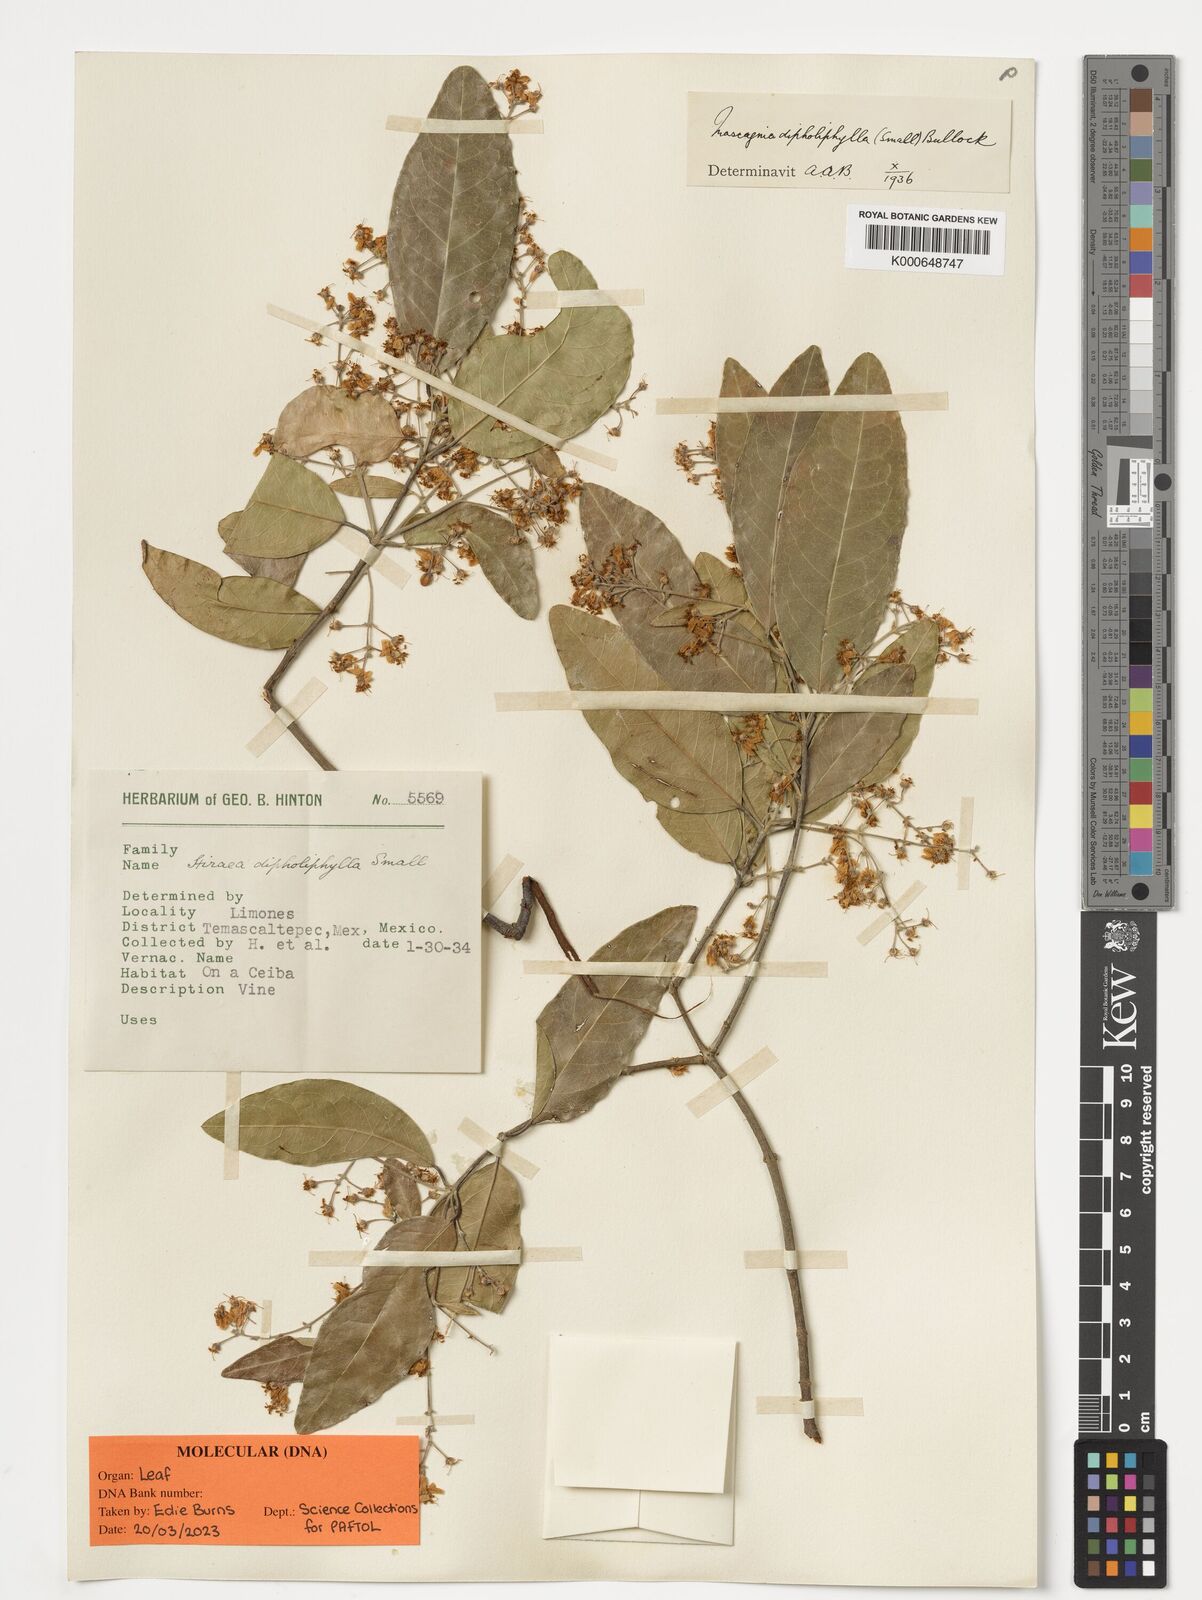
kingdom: Plantae
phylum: Tracheophyta
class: Magnoliopsida
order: Malpighiales
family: Malpighiaceae
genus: Psychopterys
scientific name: Psychopterys dipholiphylla
